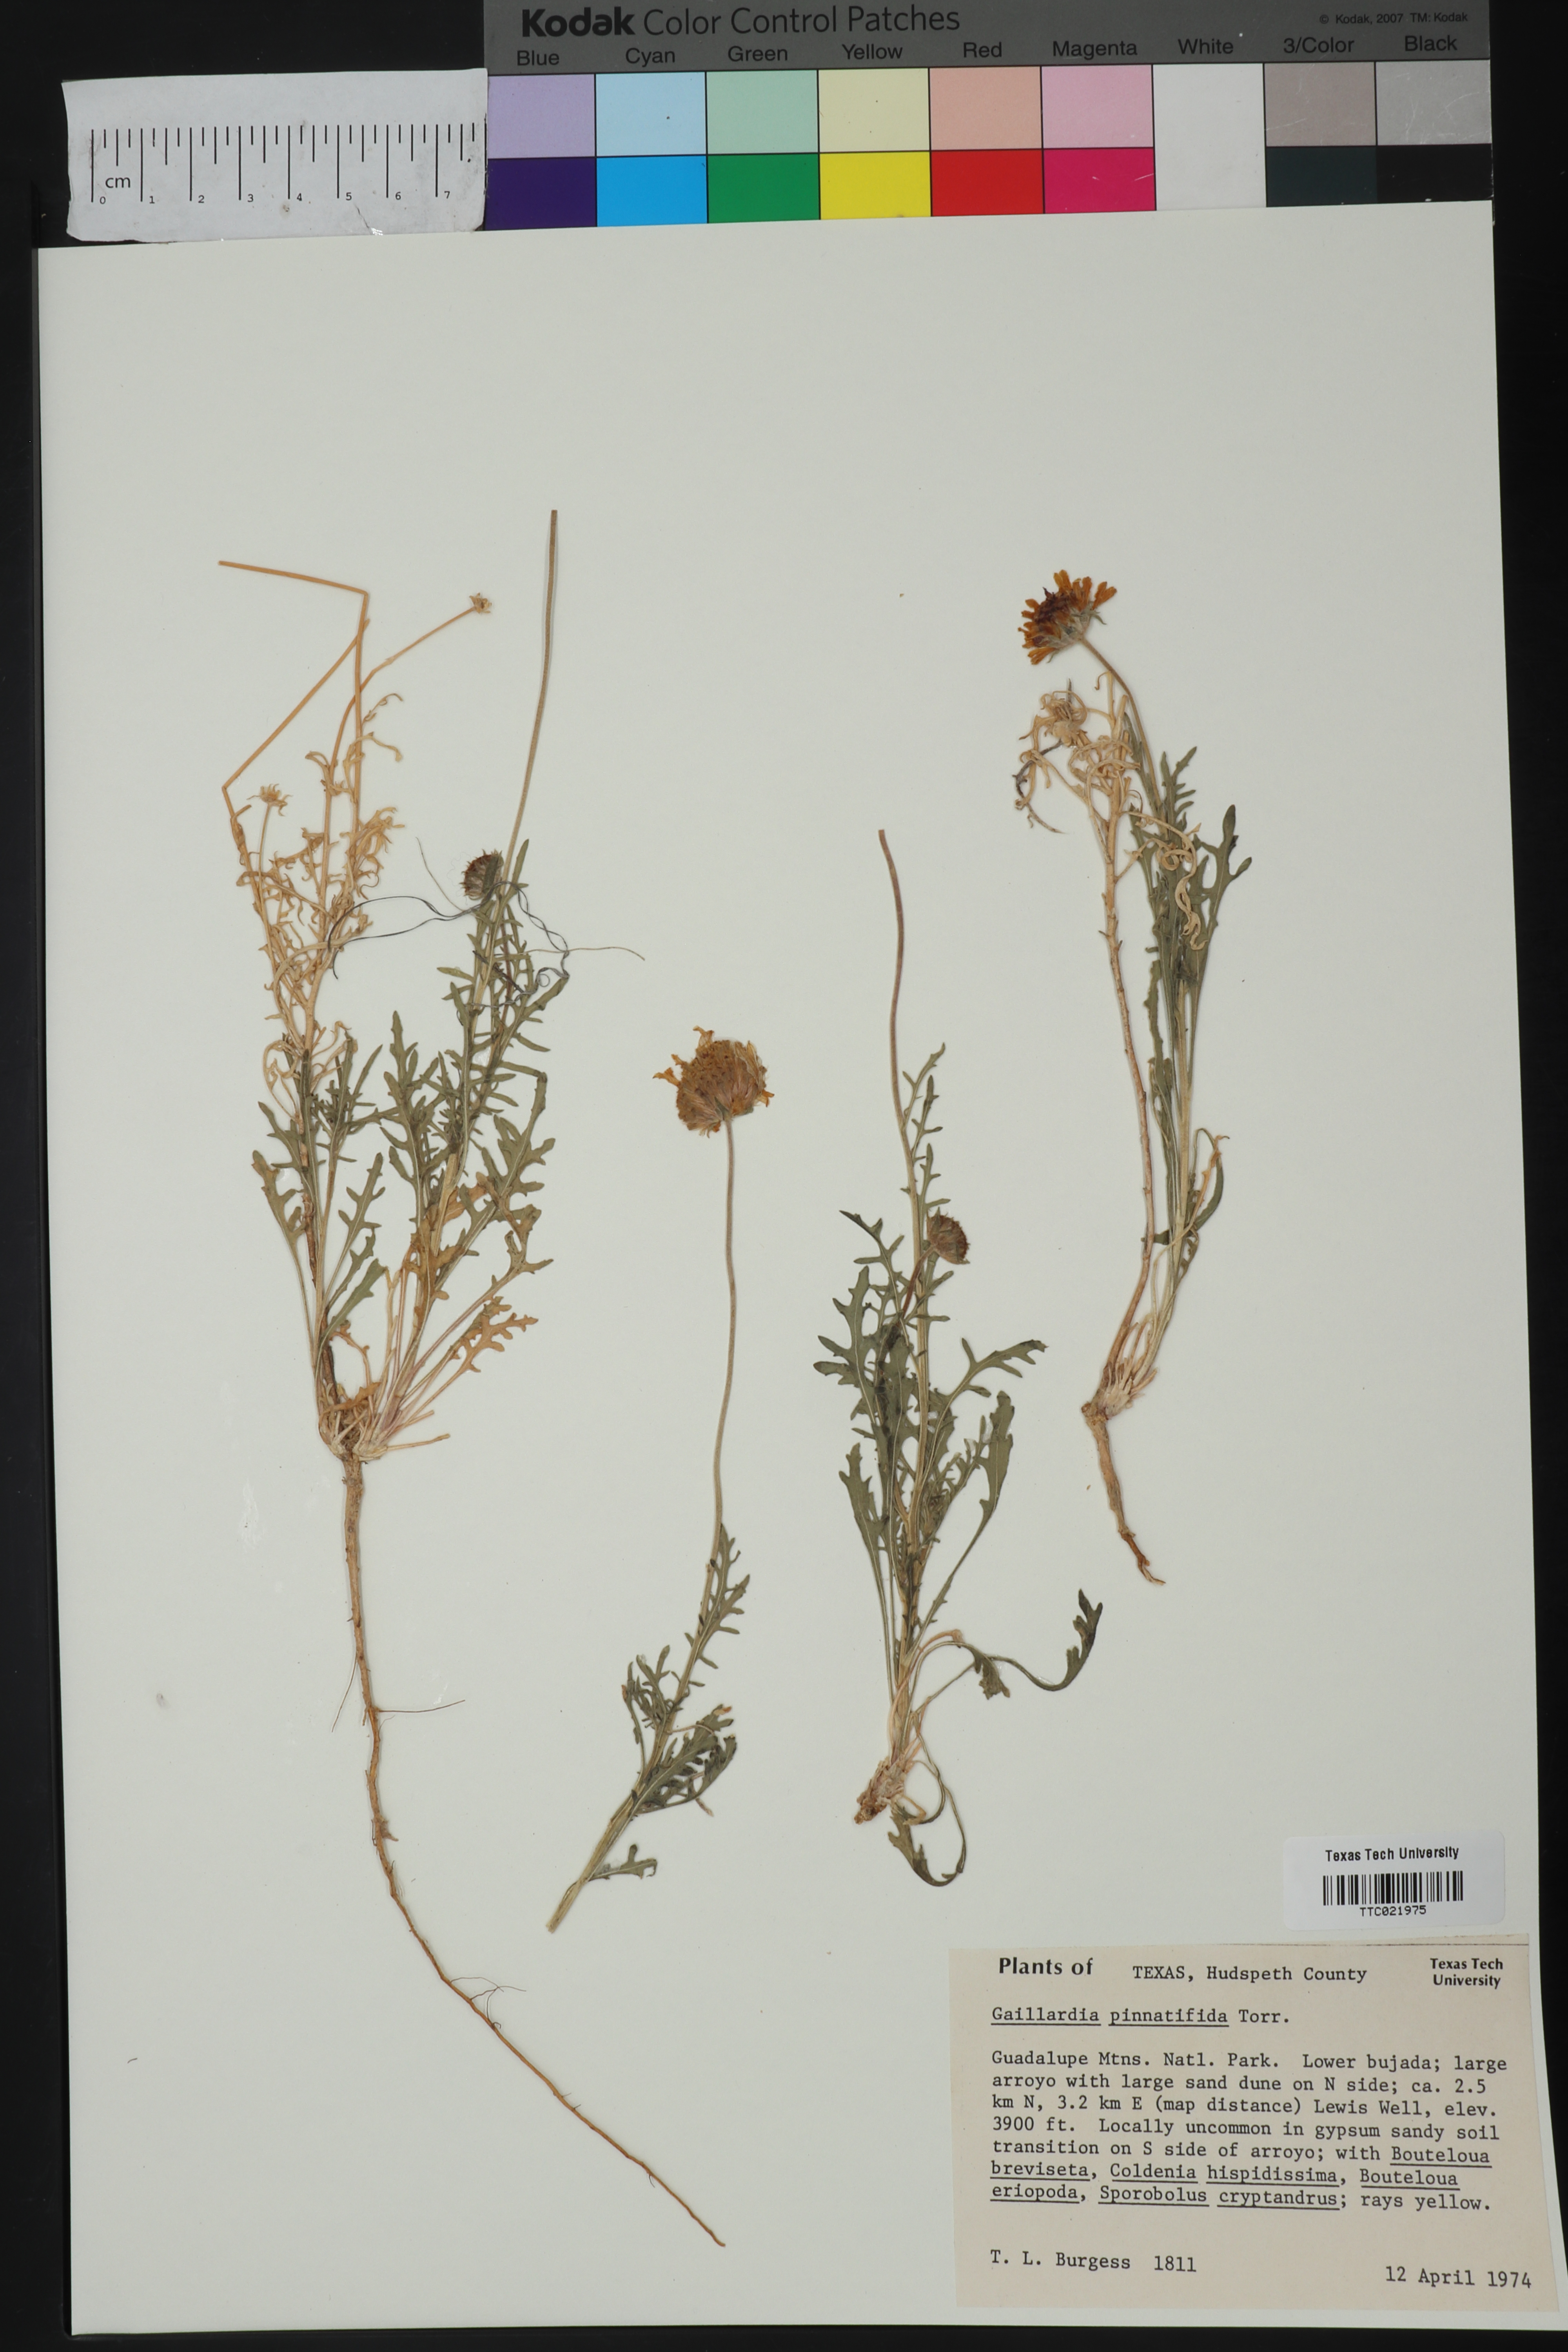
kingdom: Plantae
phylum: Tracheophyta
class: Magnoliopsida
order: Asterales
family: Asteraceae
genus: Gaillardia
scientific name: Gaillardia pinnatifida
